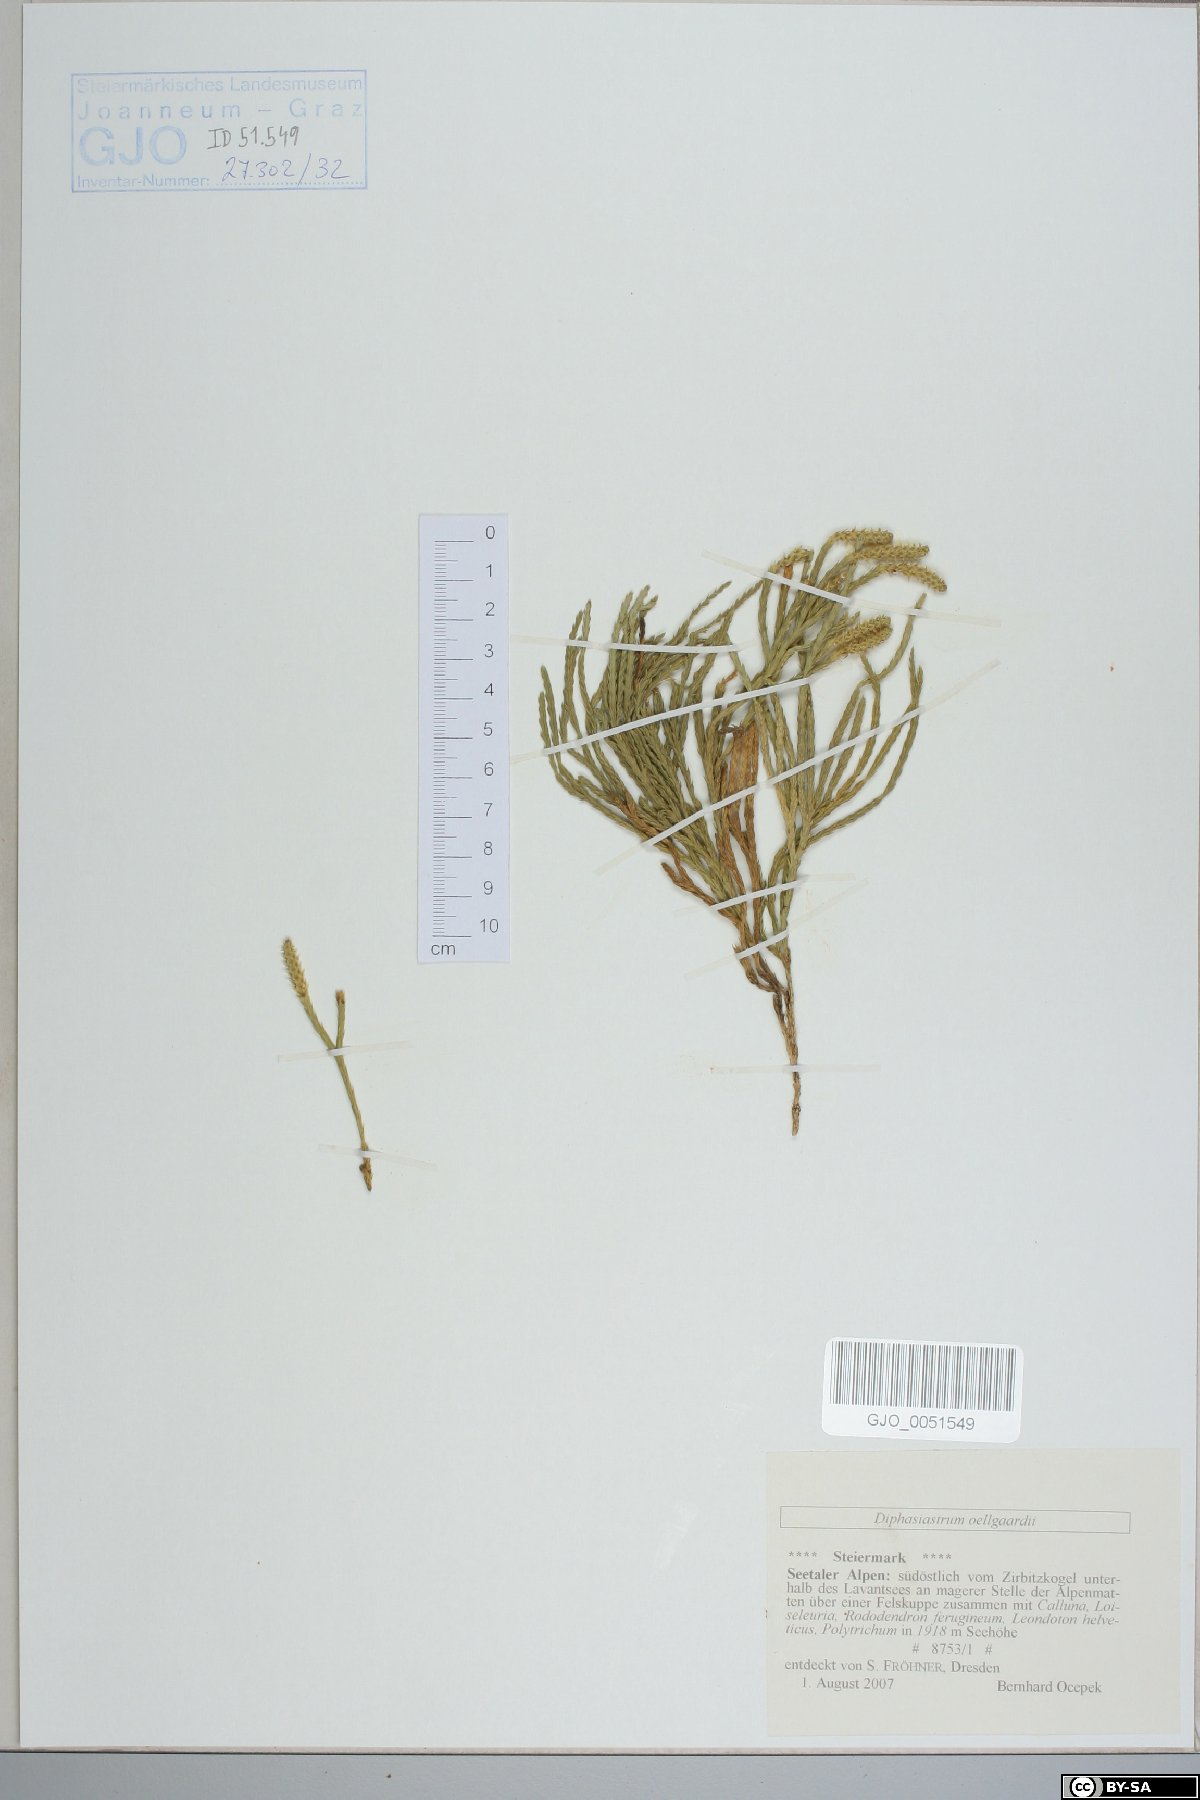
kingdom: Plantae
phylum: Tracheophyta
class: Lycopodiopsida
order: Lycopodiales
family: Lycopodiaceae
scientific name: Lycopodiaceae
